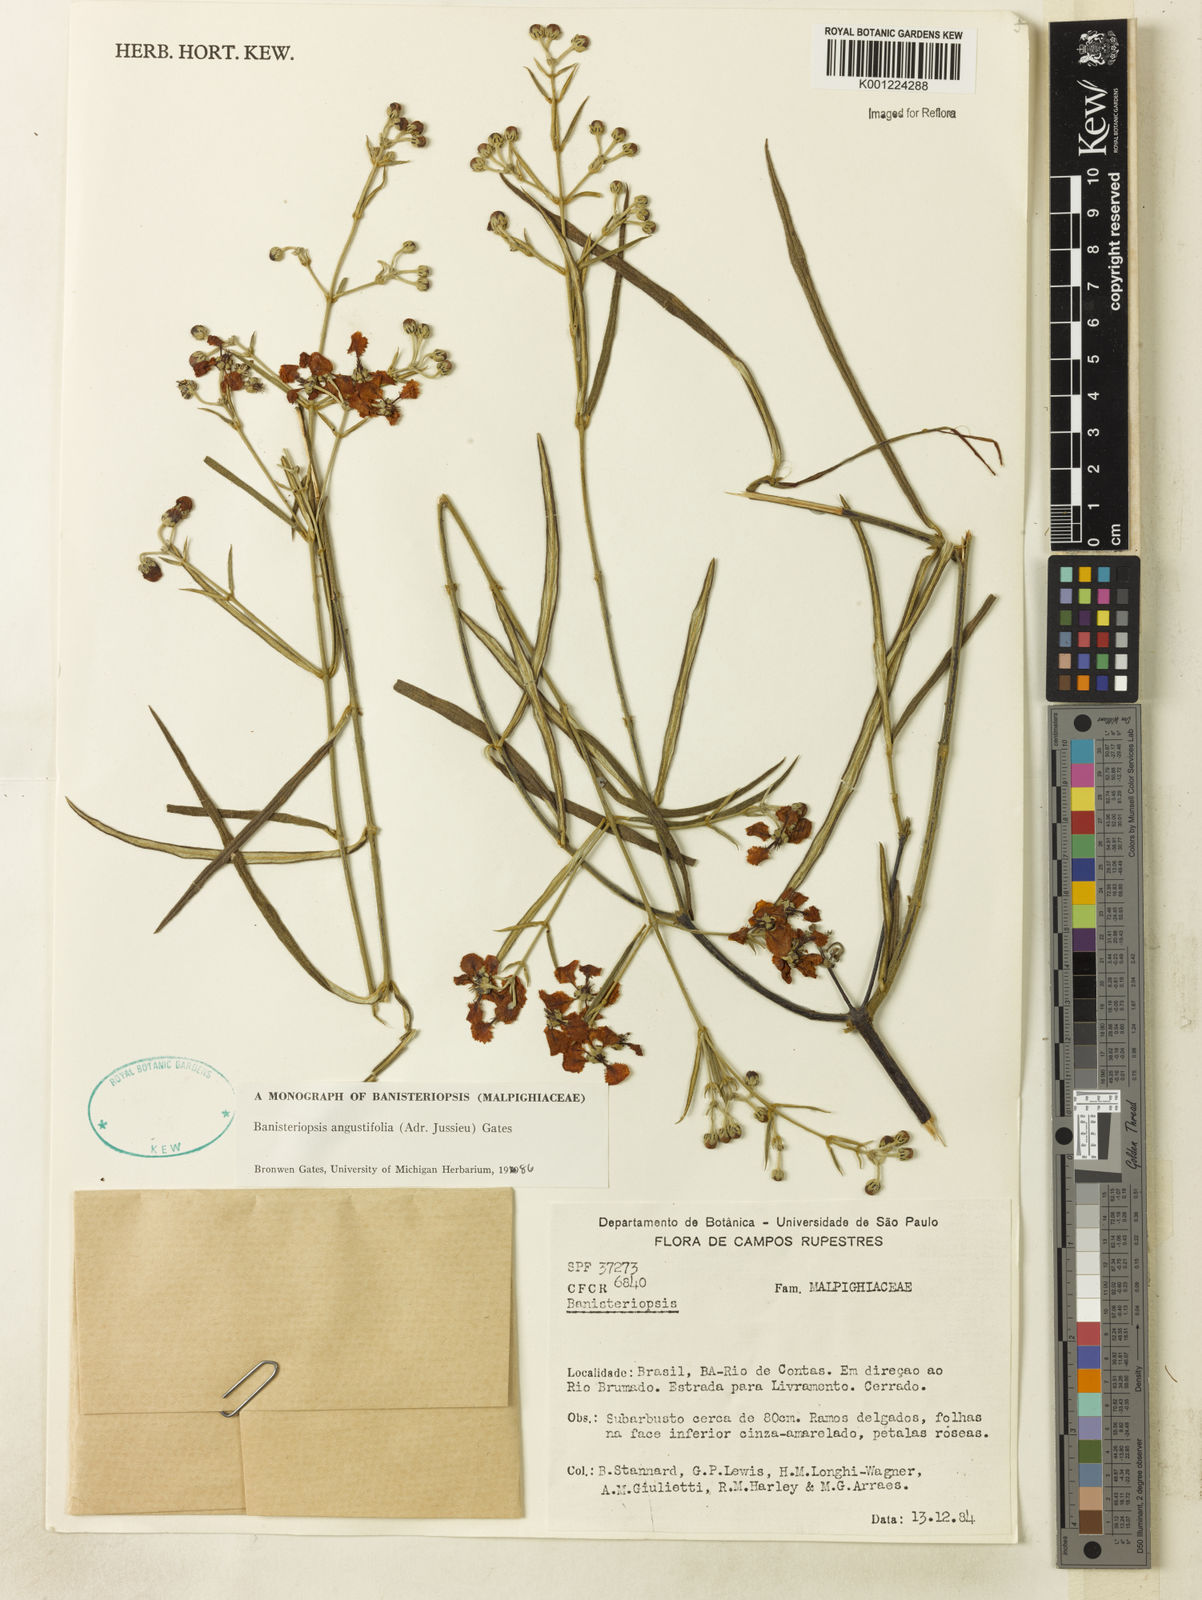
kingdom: Plantae
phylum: Tracheophyta
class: Magnoliopsida
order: Malpighiales
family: Malpighiaceae
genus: Banisteriopsis
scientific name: Banisteriopsis angustifolia
